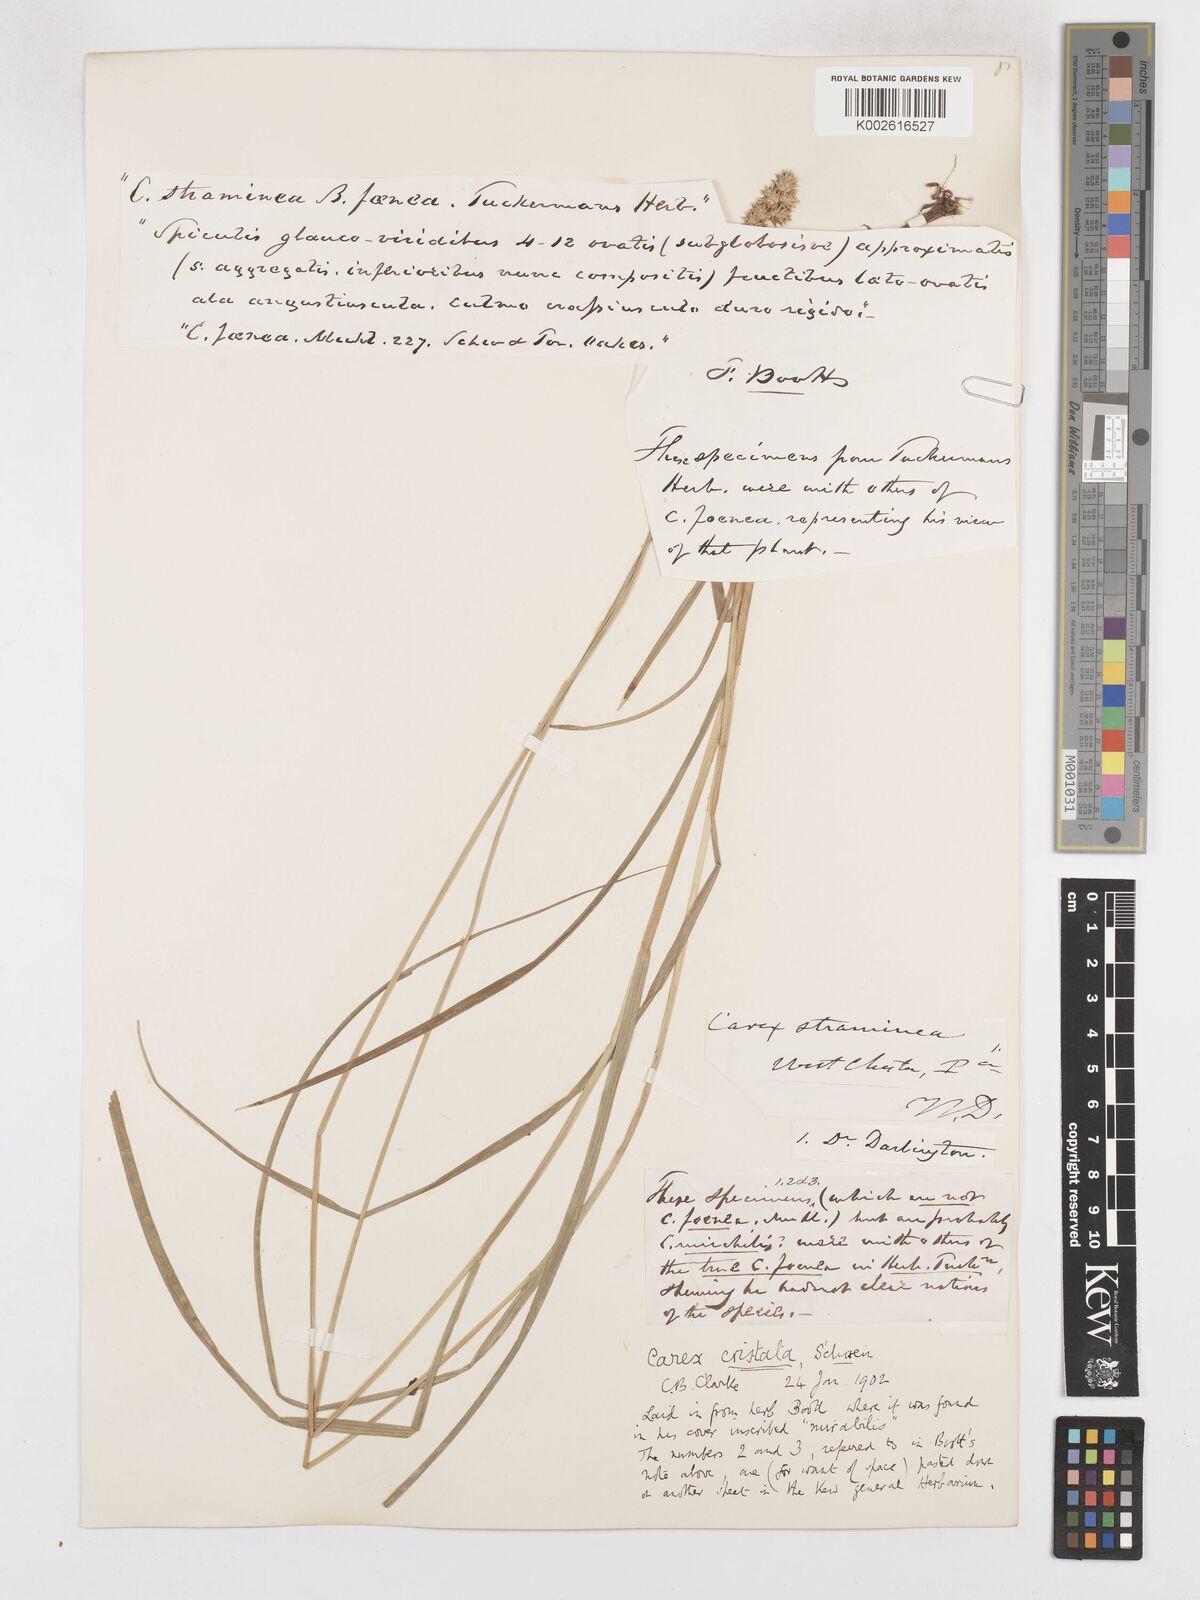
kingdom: Plantae
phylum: Tracheophyta
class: Liliopsida
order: Poales
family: Cyperaceae
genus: Carex
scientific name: Carex cristatella
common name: Crested oval sedge
